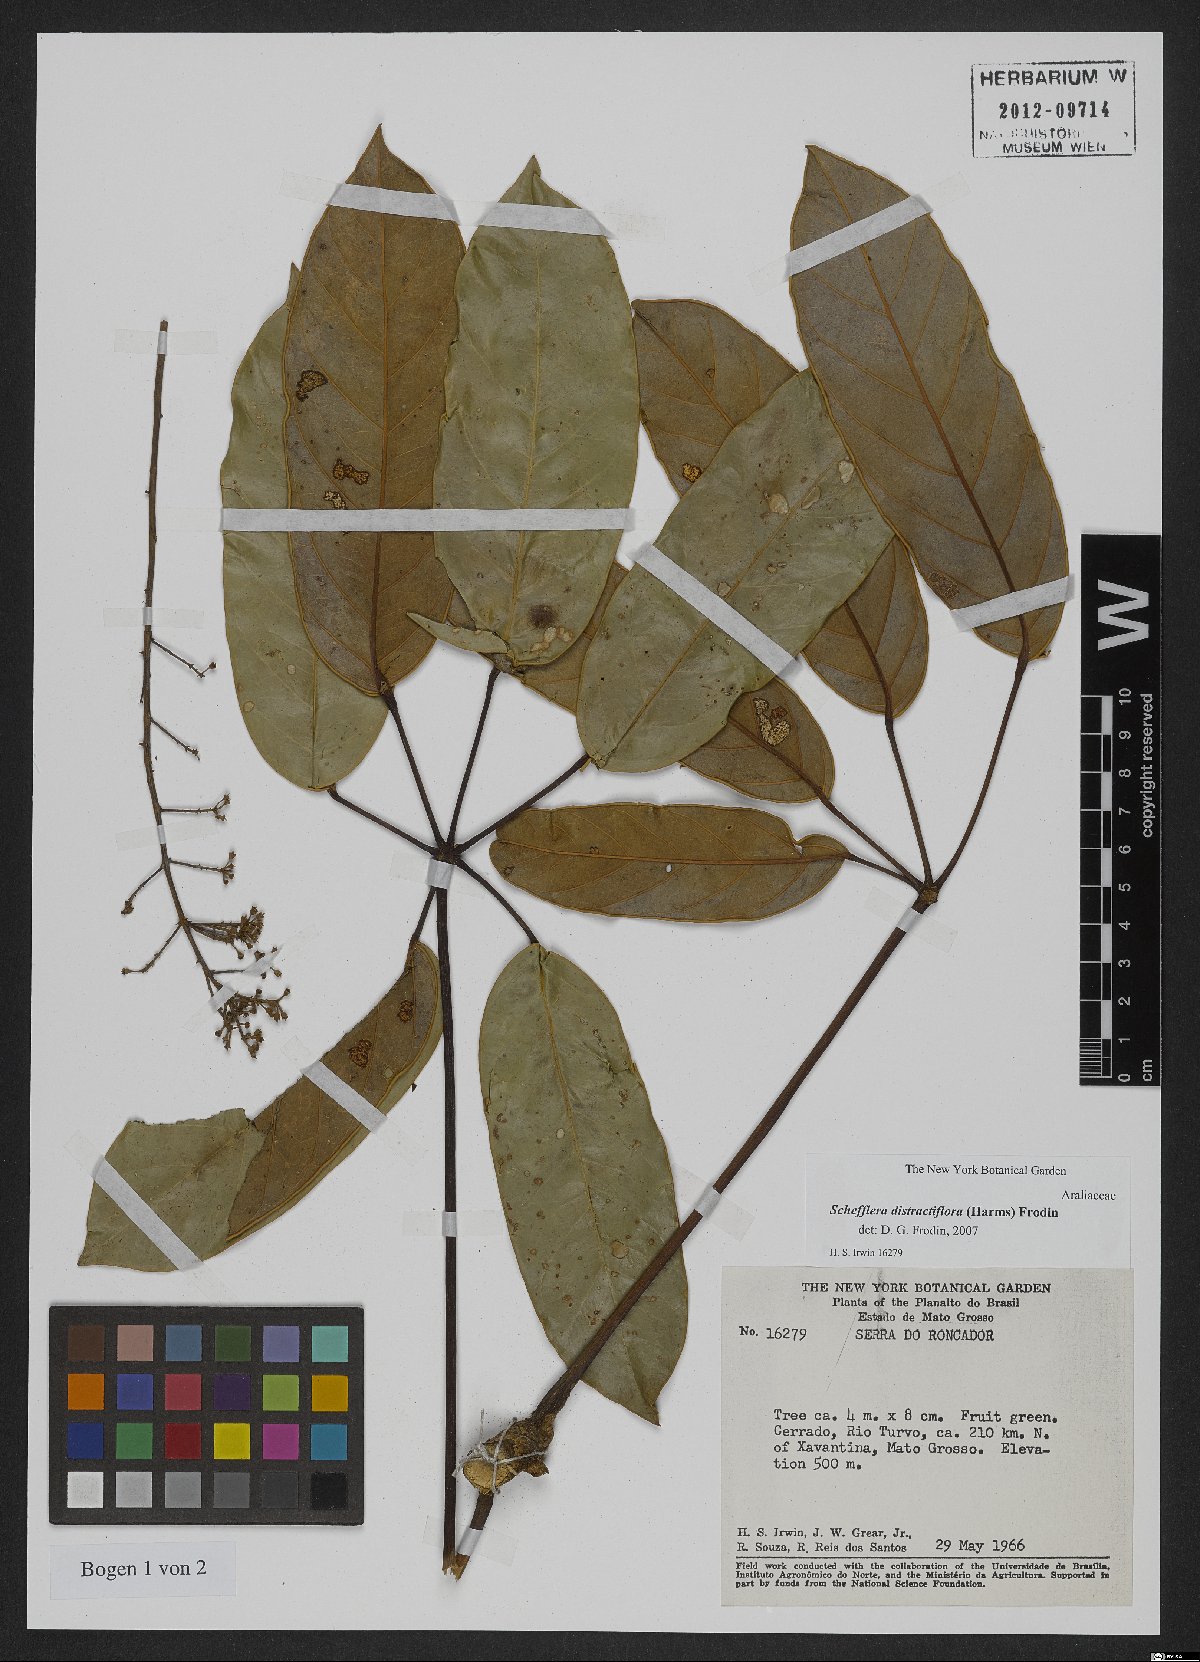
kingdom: Plantae
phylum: Tracheophyta
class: Magnoliopsida
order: Apiales
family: Araliaceae
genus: Didymopanax
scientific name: Didymopanax distractiflorus
